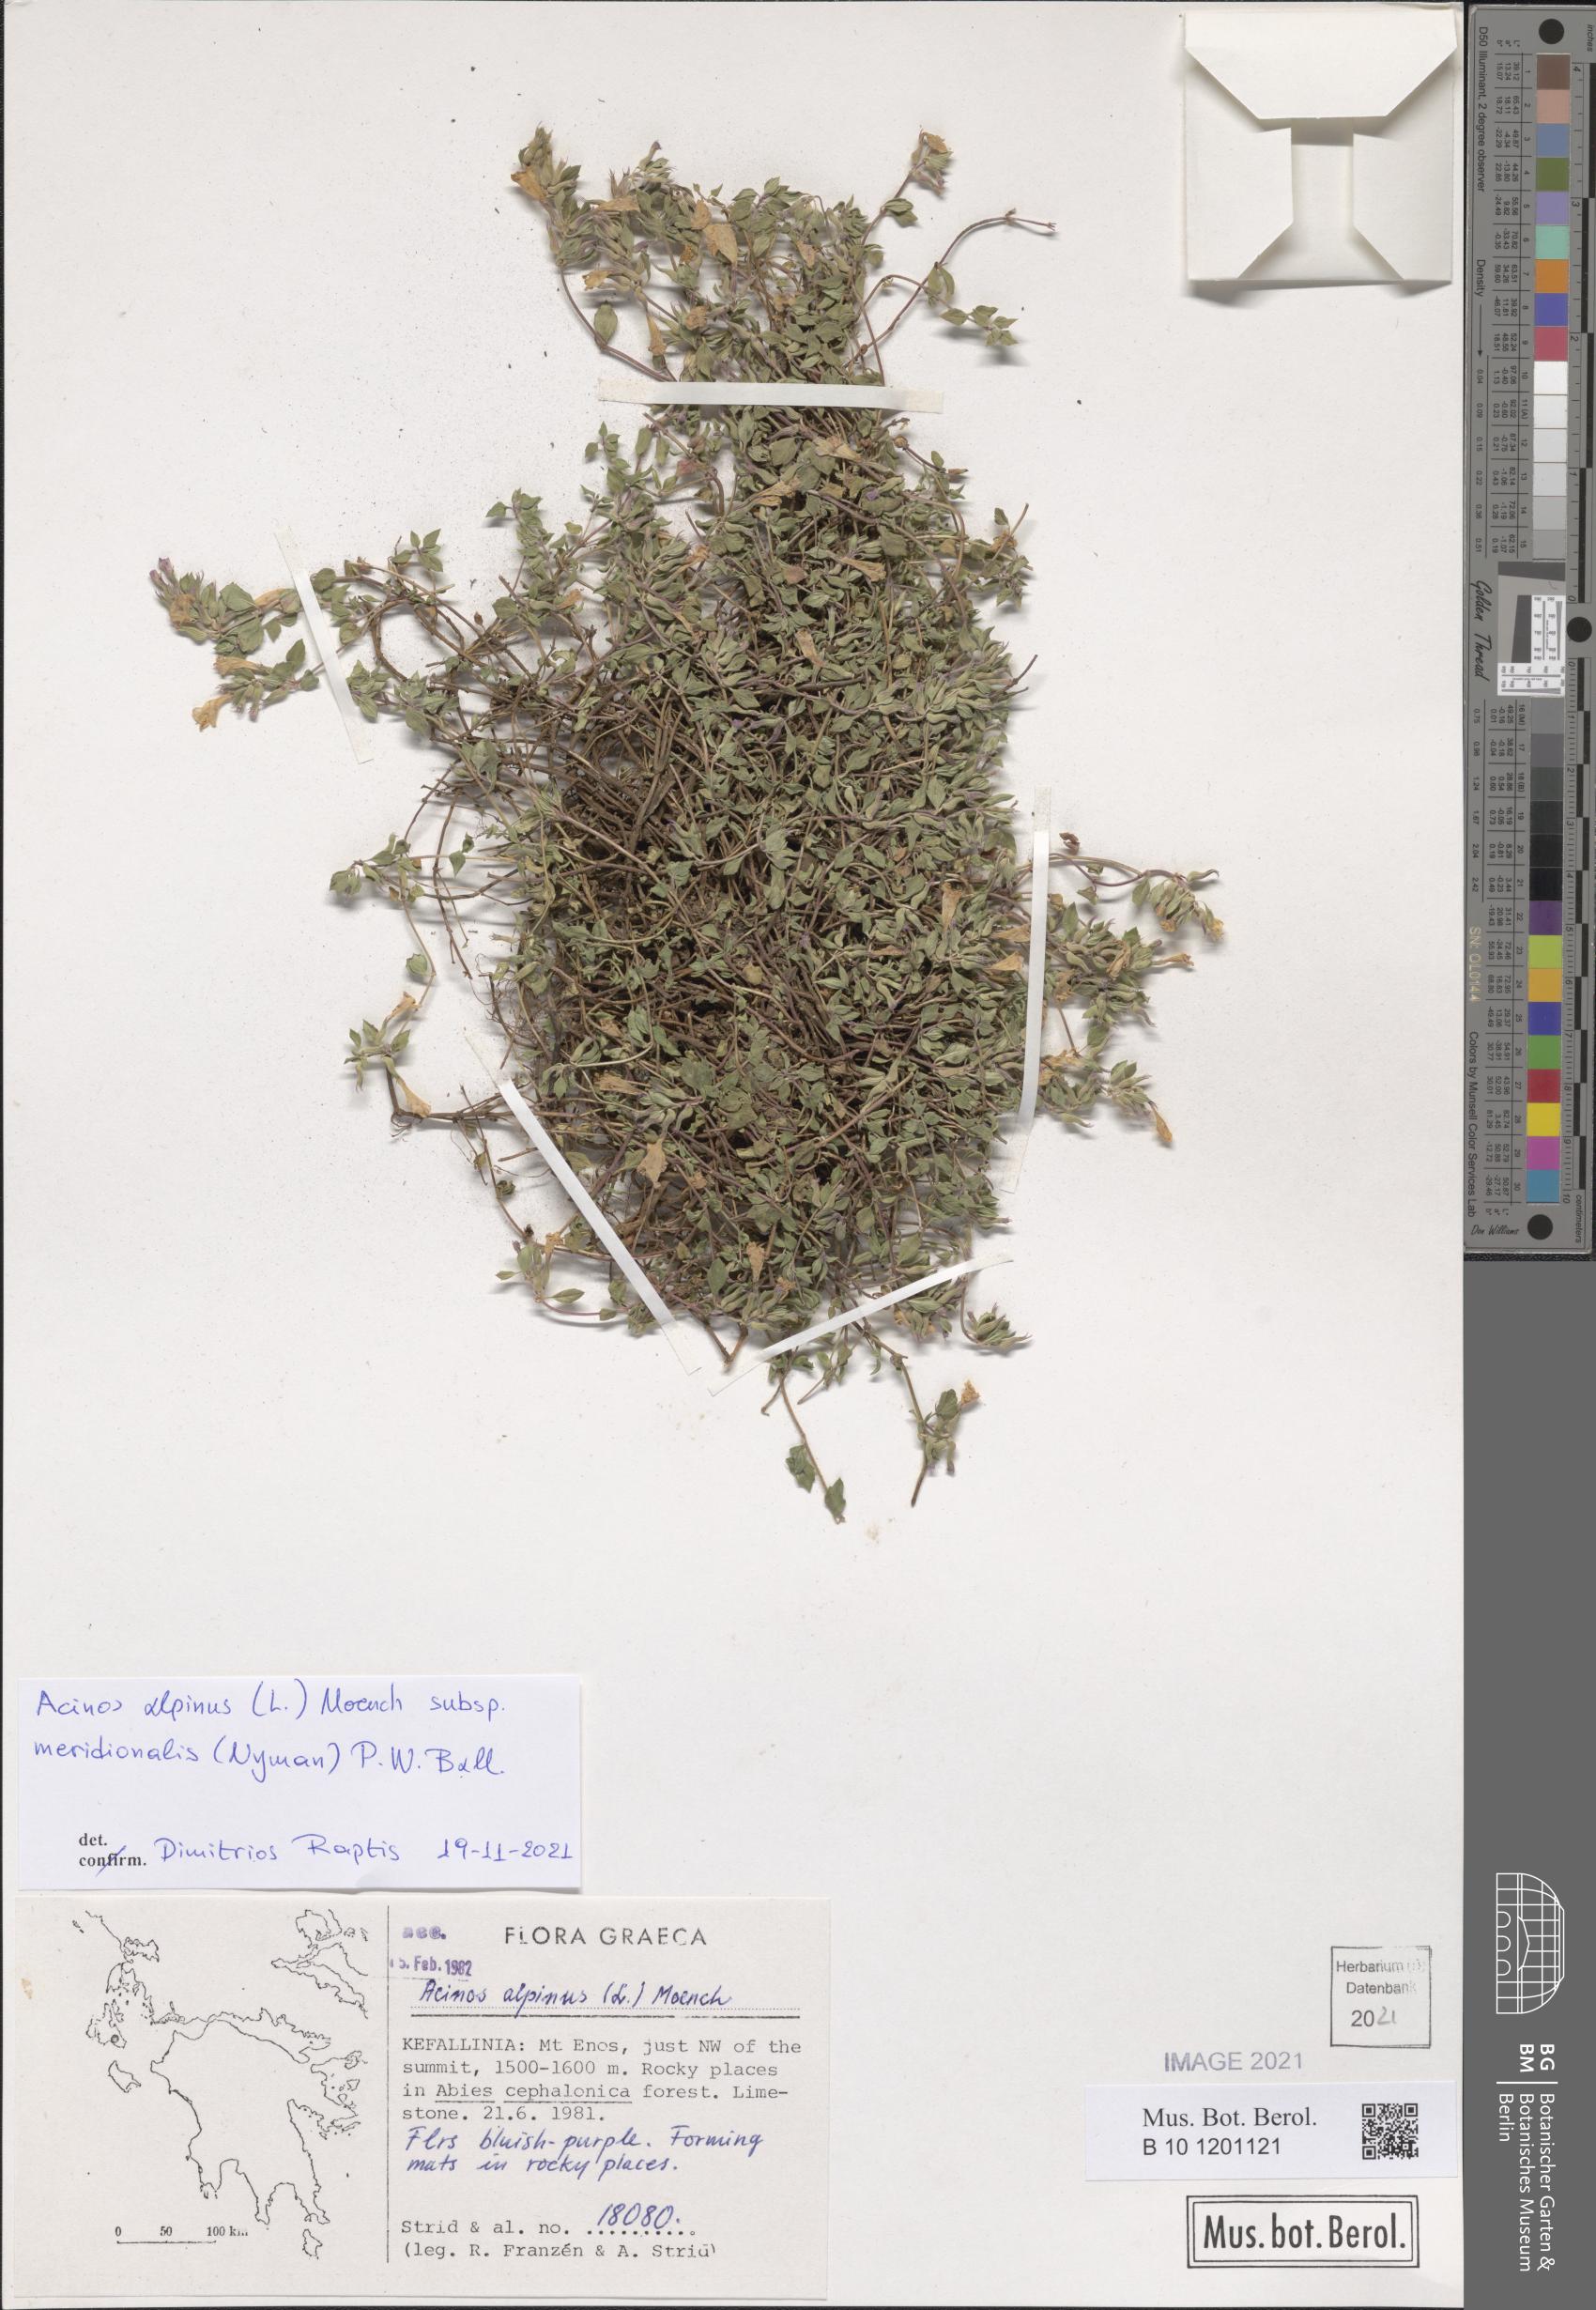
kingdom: Plantae
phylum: Tracheophyta
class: Magnoliopsida
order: Lamiales
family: Lamiaceae
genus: Clinopodium
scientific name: Clinopodium alpinum
